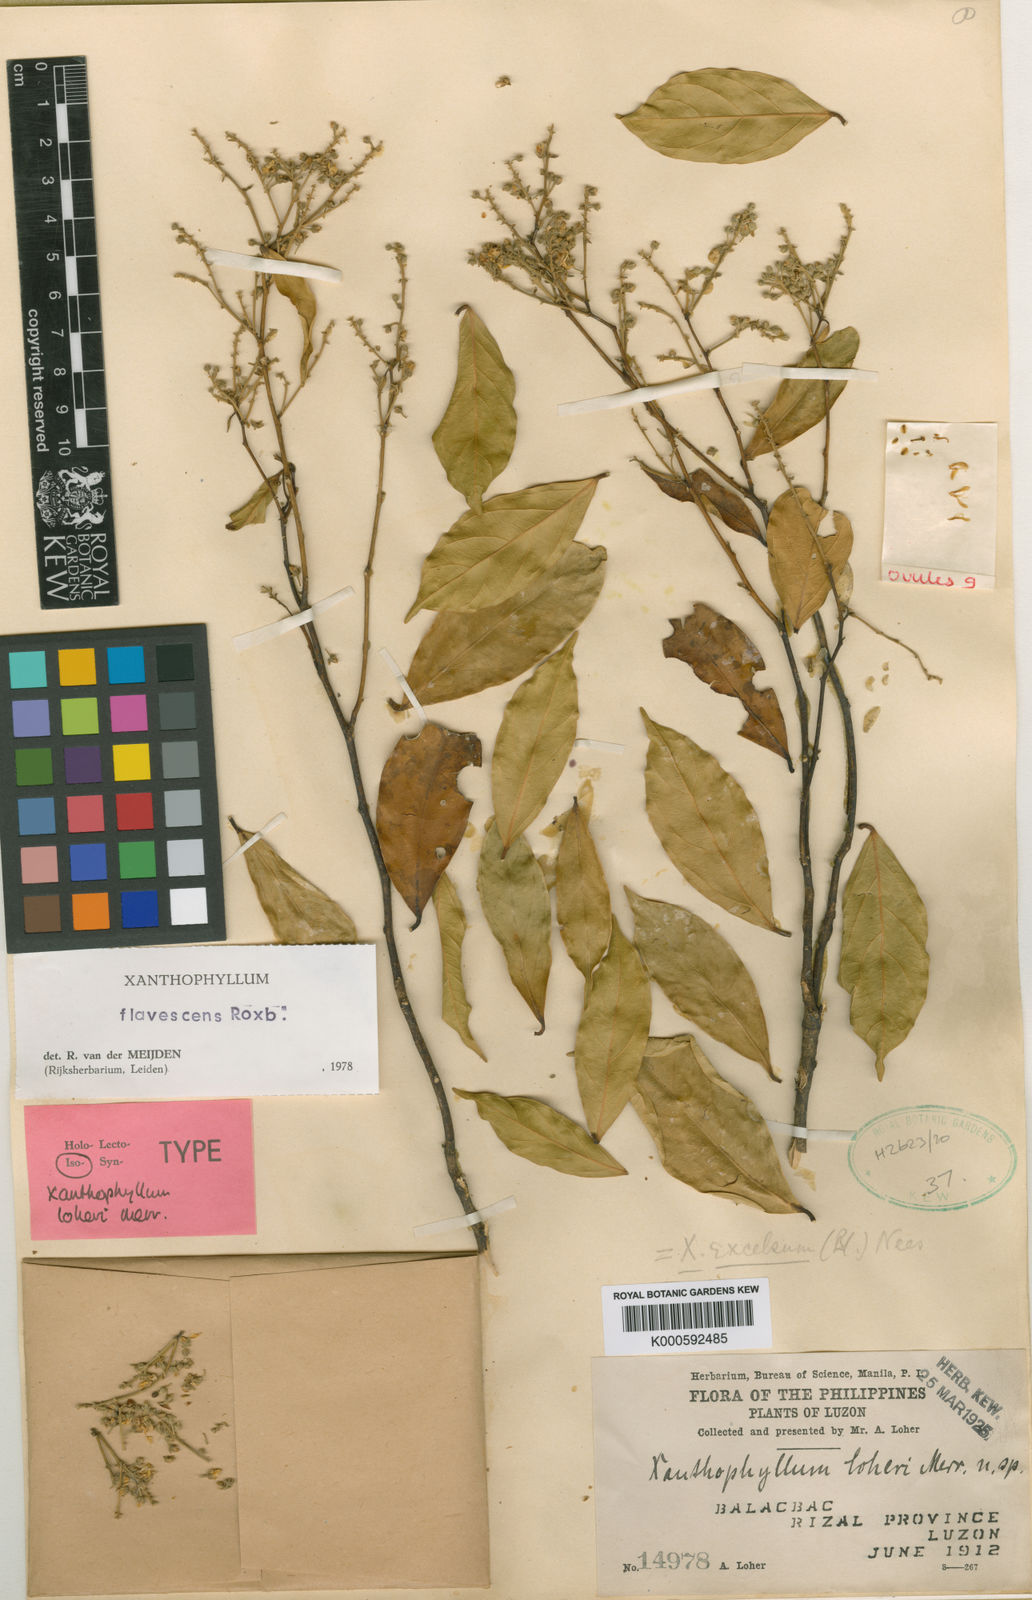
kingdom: Plantae
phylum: Tracheophyta
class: Magnoliopsida
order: Fabales
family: Polygalaceae
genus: Xanthophyllum
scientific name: Xanthophyllum flavescens
